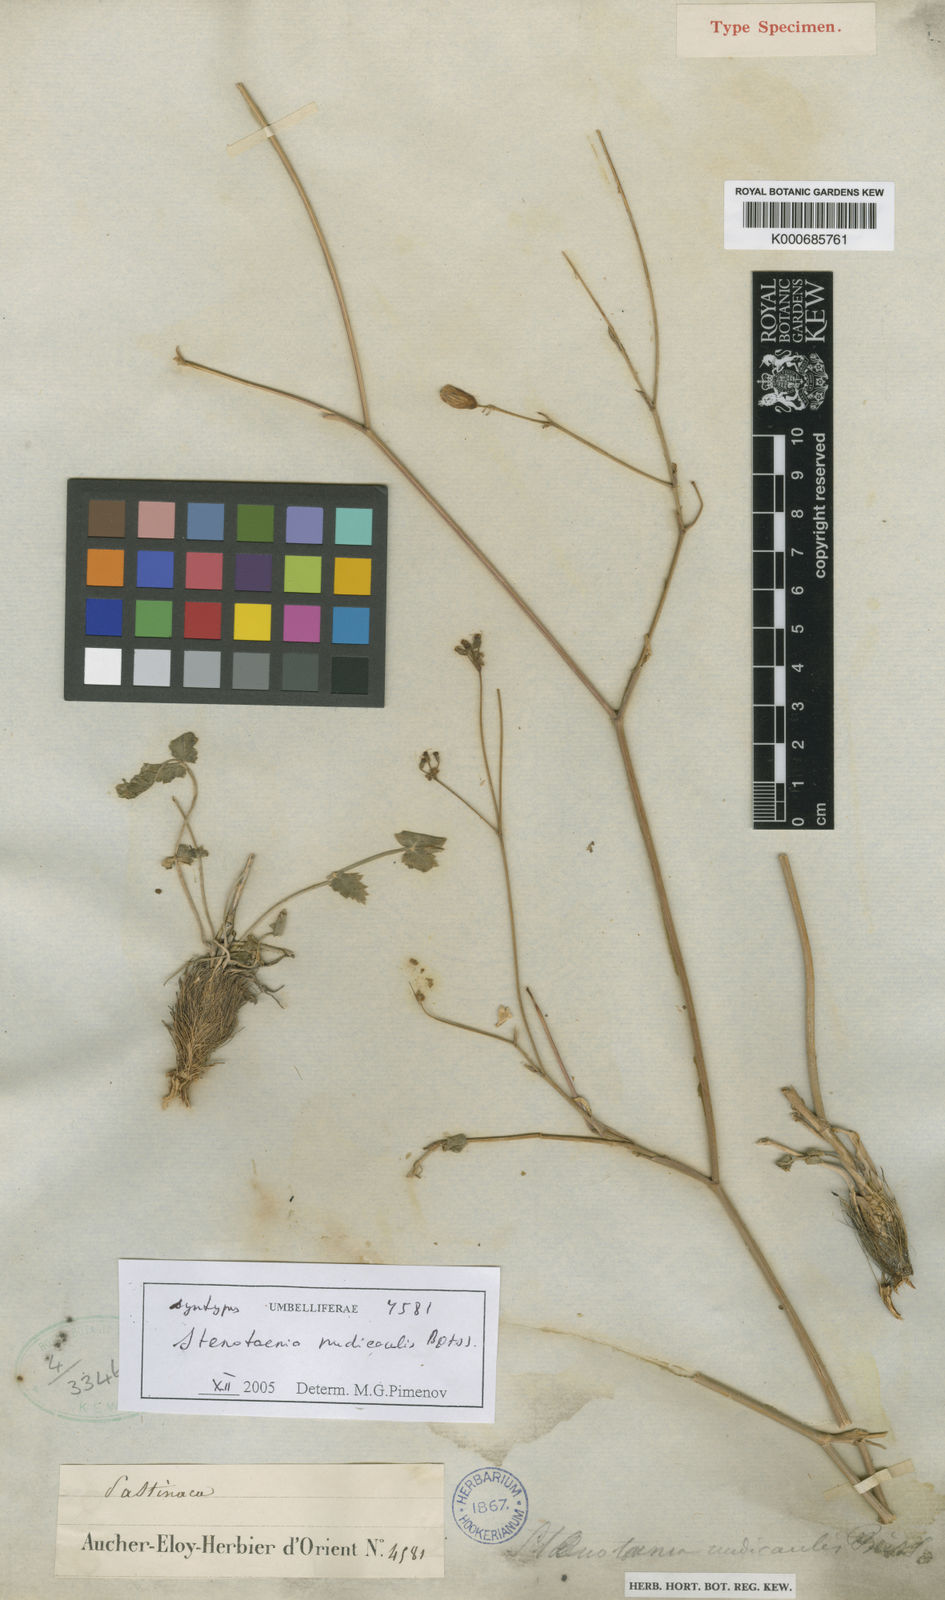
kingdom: Plantae
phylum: Tracheophyta
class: Magnoliopsida
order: Apiales
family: Apiaceae
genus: Stenotaenia
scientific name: Stenotaenia nudicaulis
